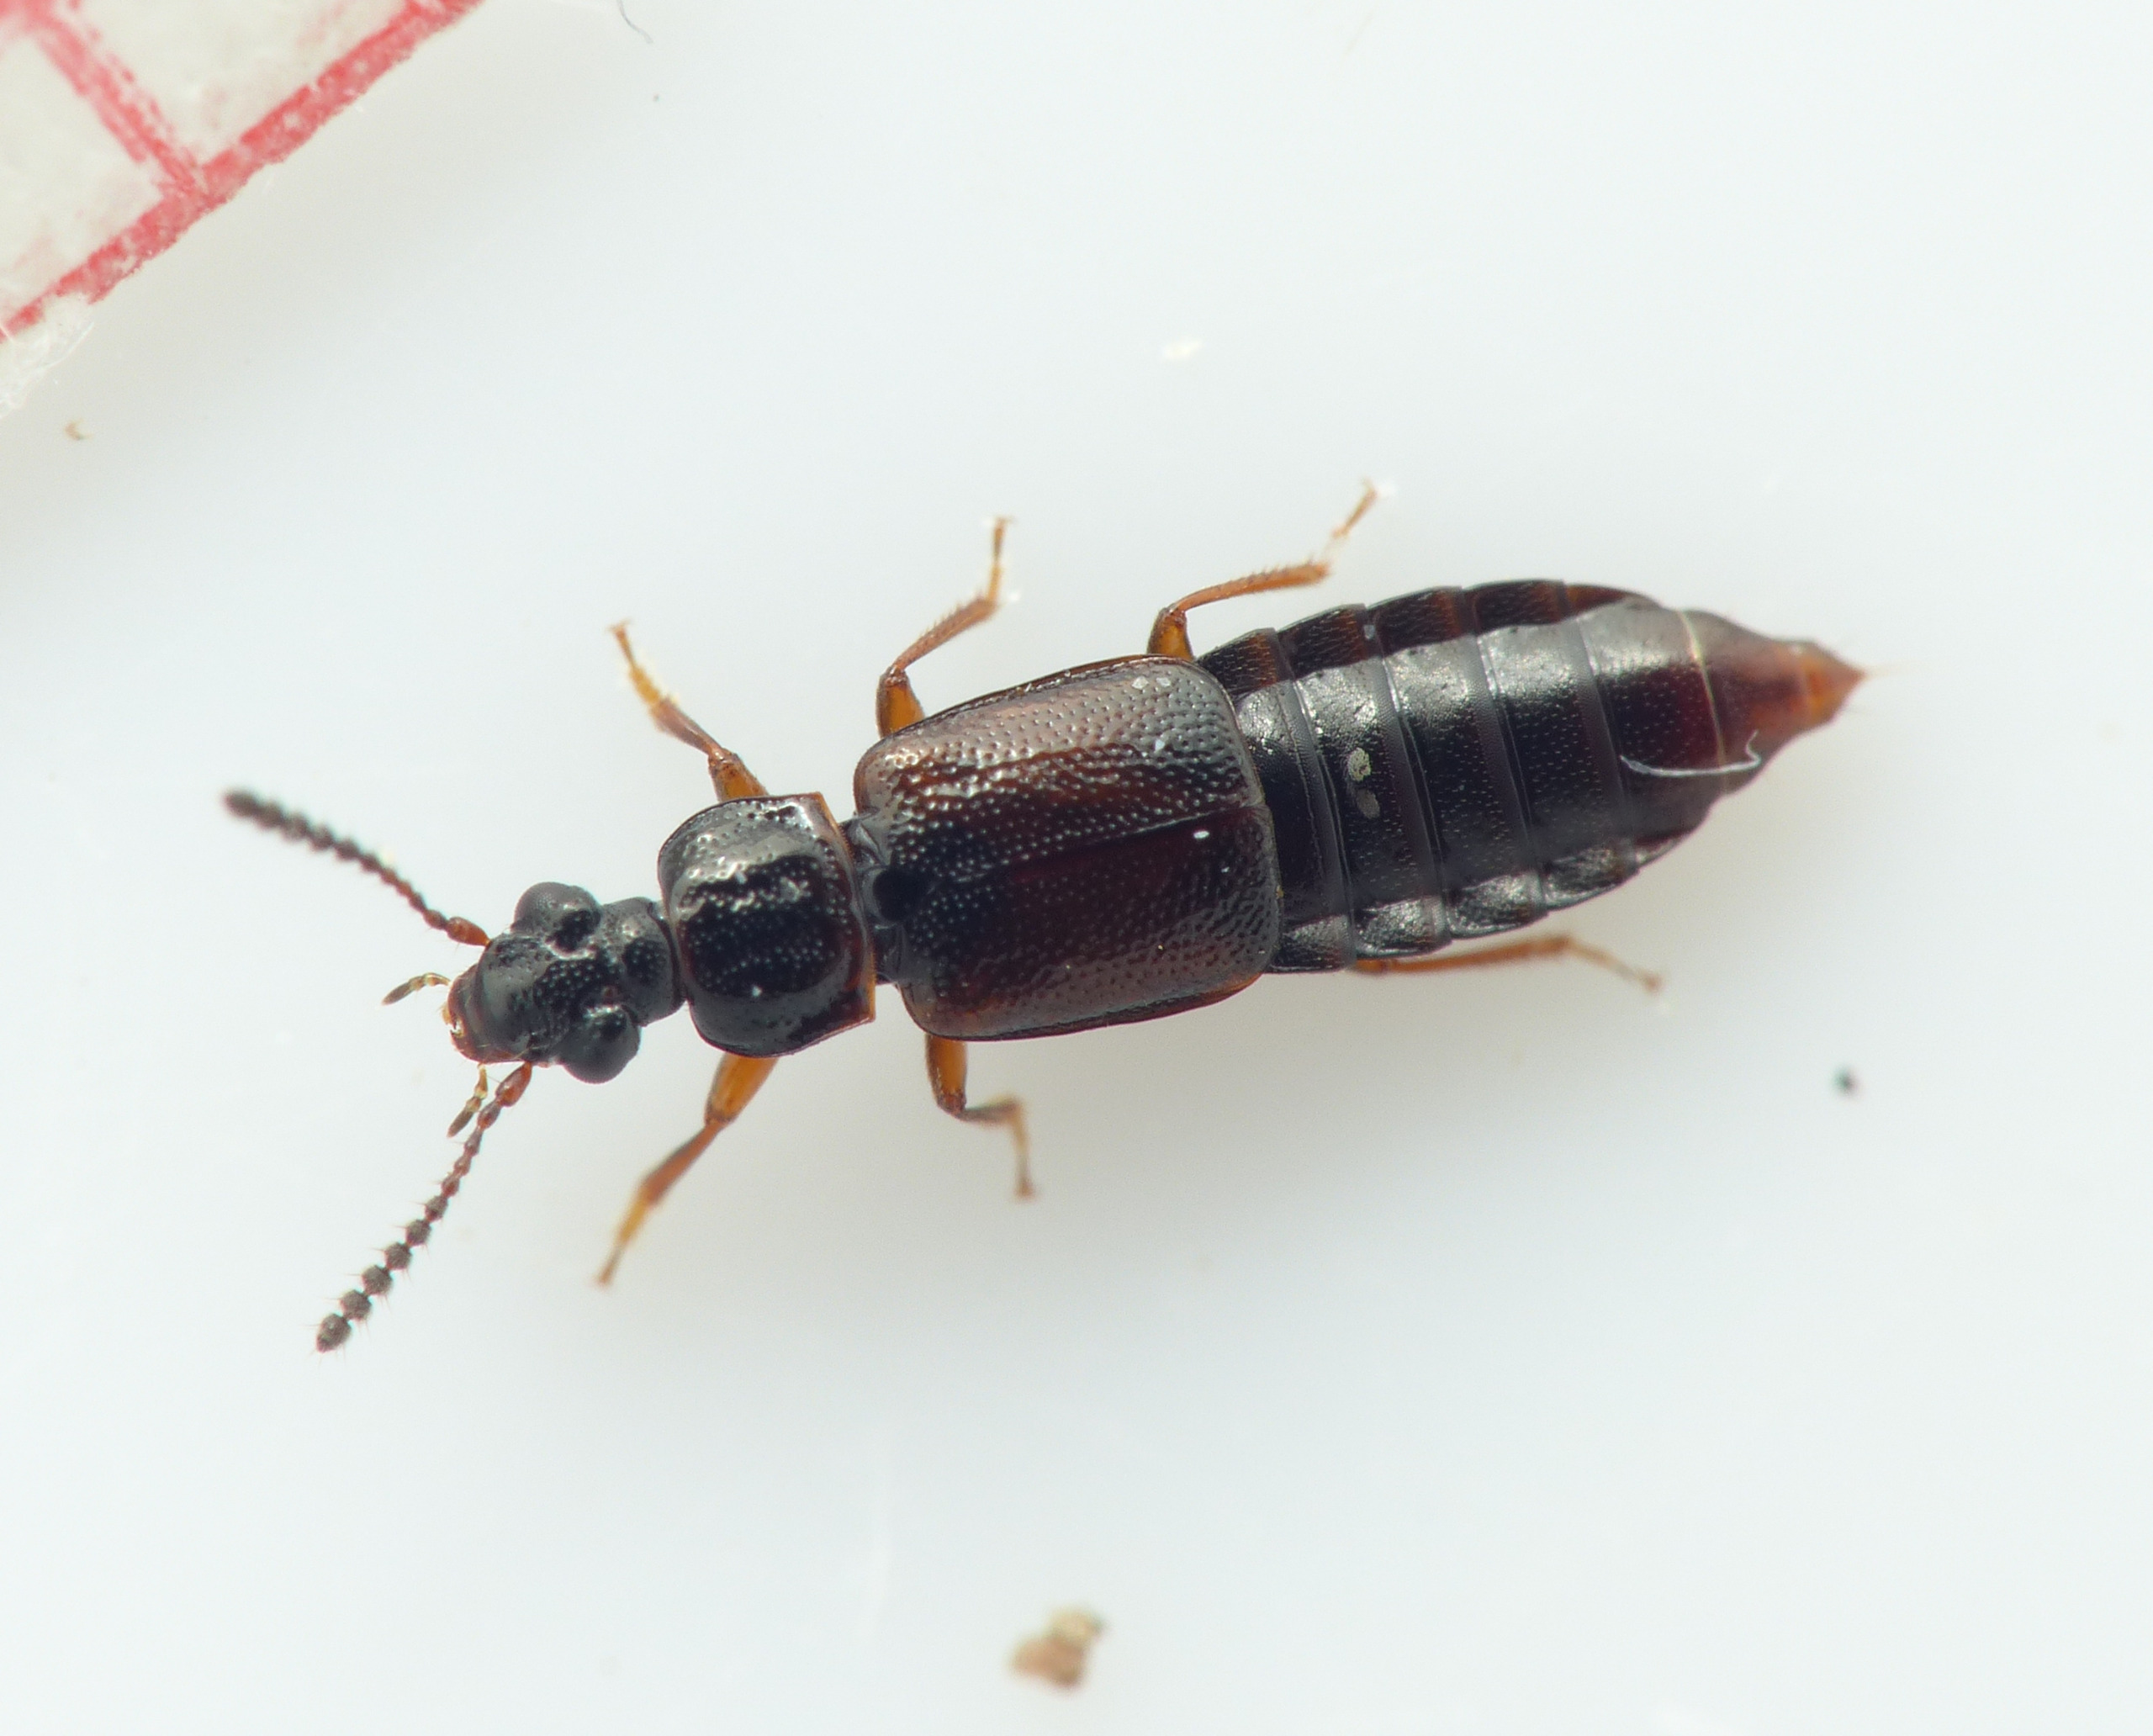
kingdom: Animalia
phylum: Arthropoda
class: Insecta
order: Coleoptera
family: Staphylinidae
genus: Omalium
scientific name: Omalium riparium
